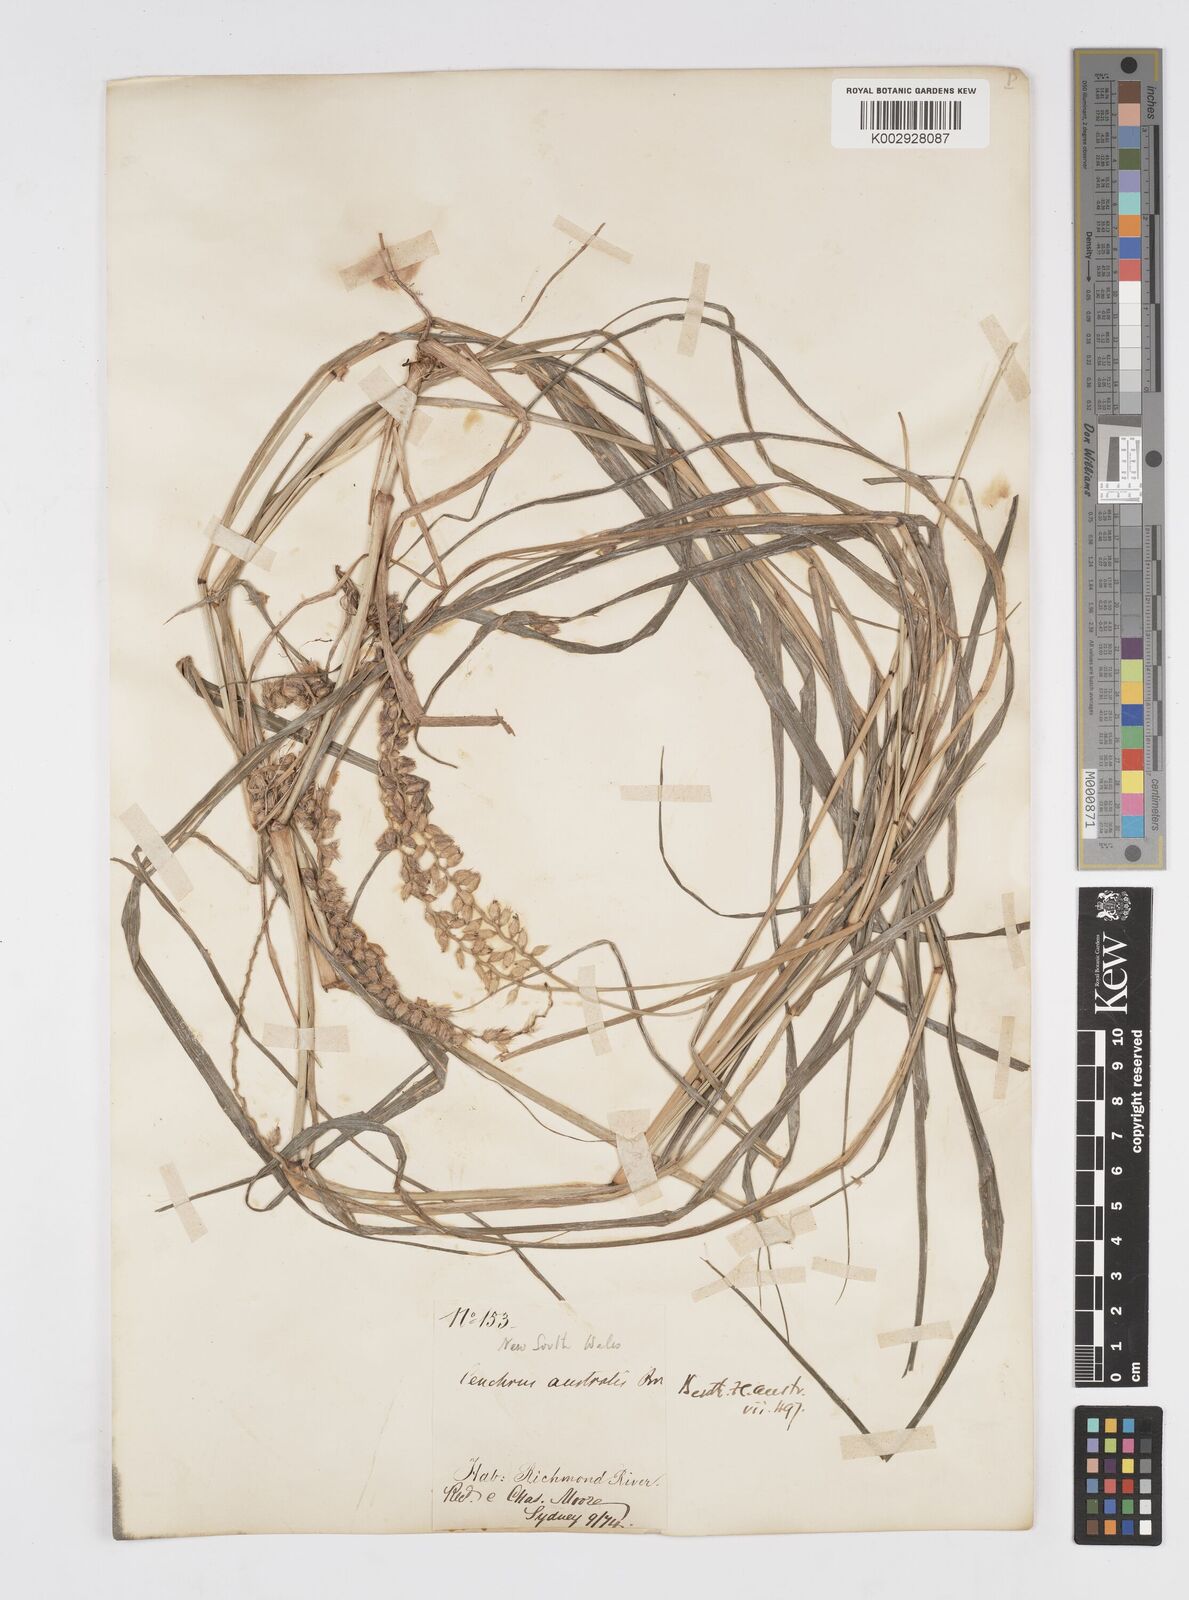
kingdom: Plantae
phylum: Tracheophyta
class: Liliopsida
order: Poales
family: Poaceae
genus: Cenchrus
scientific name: Cenchrus caliculatus
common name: Large bur grass
